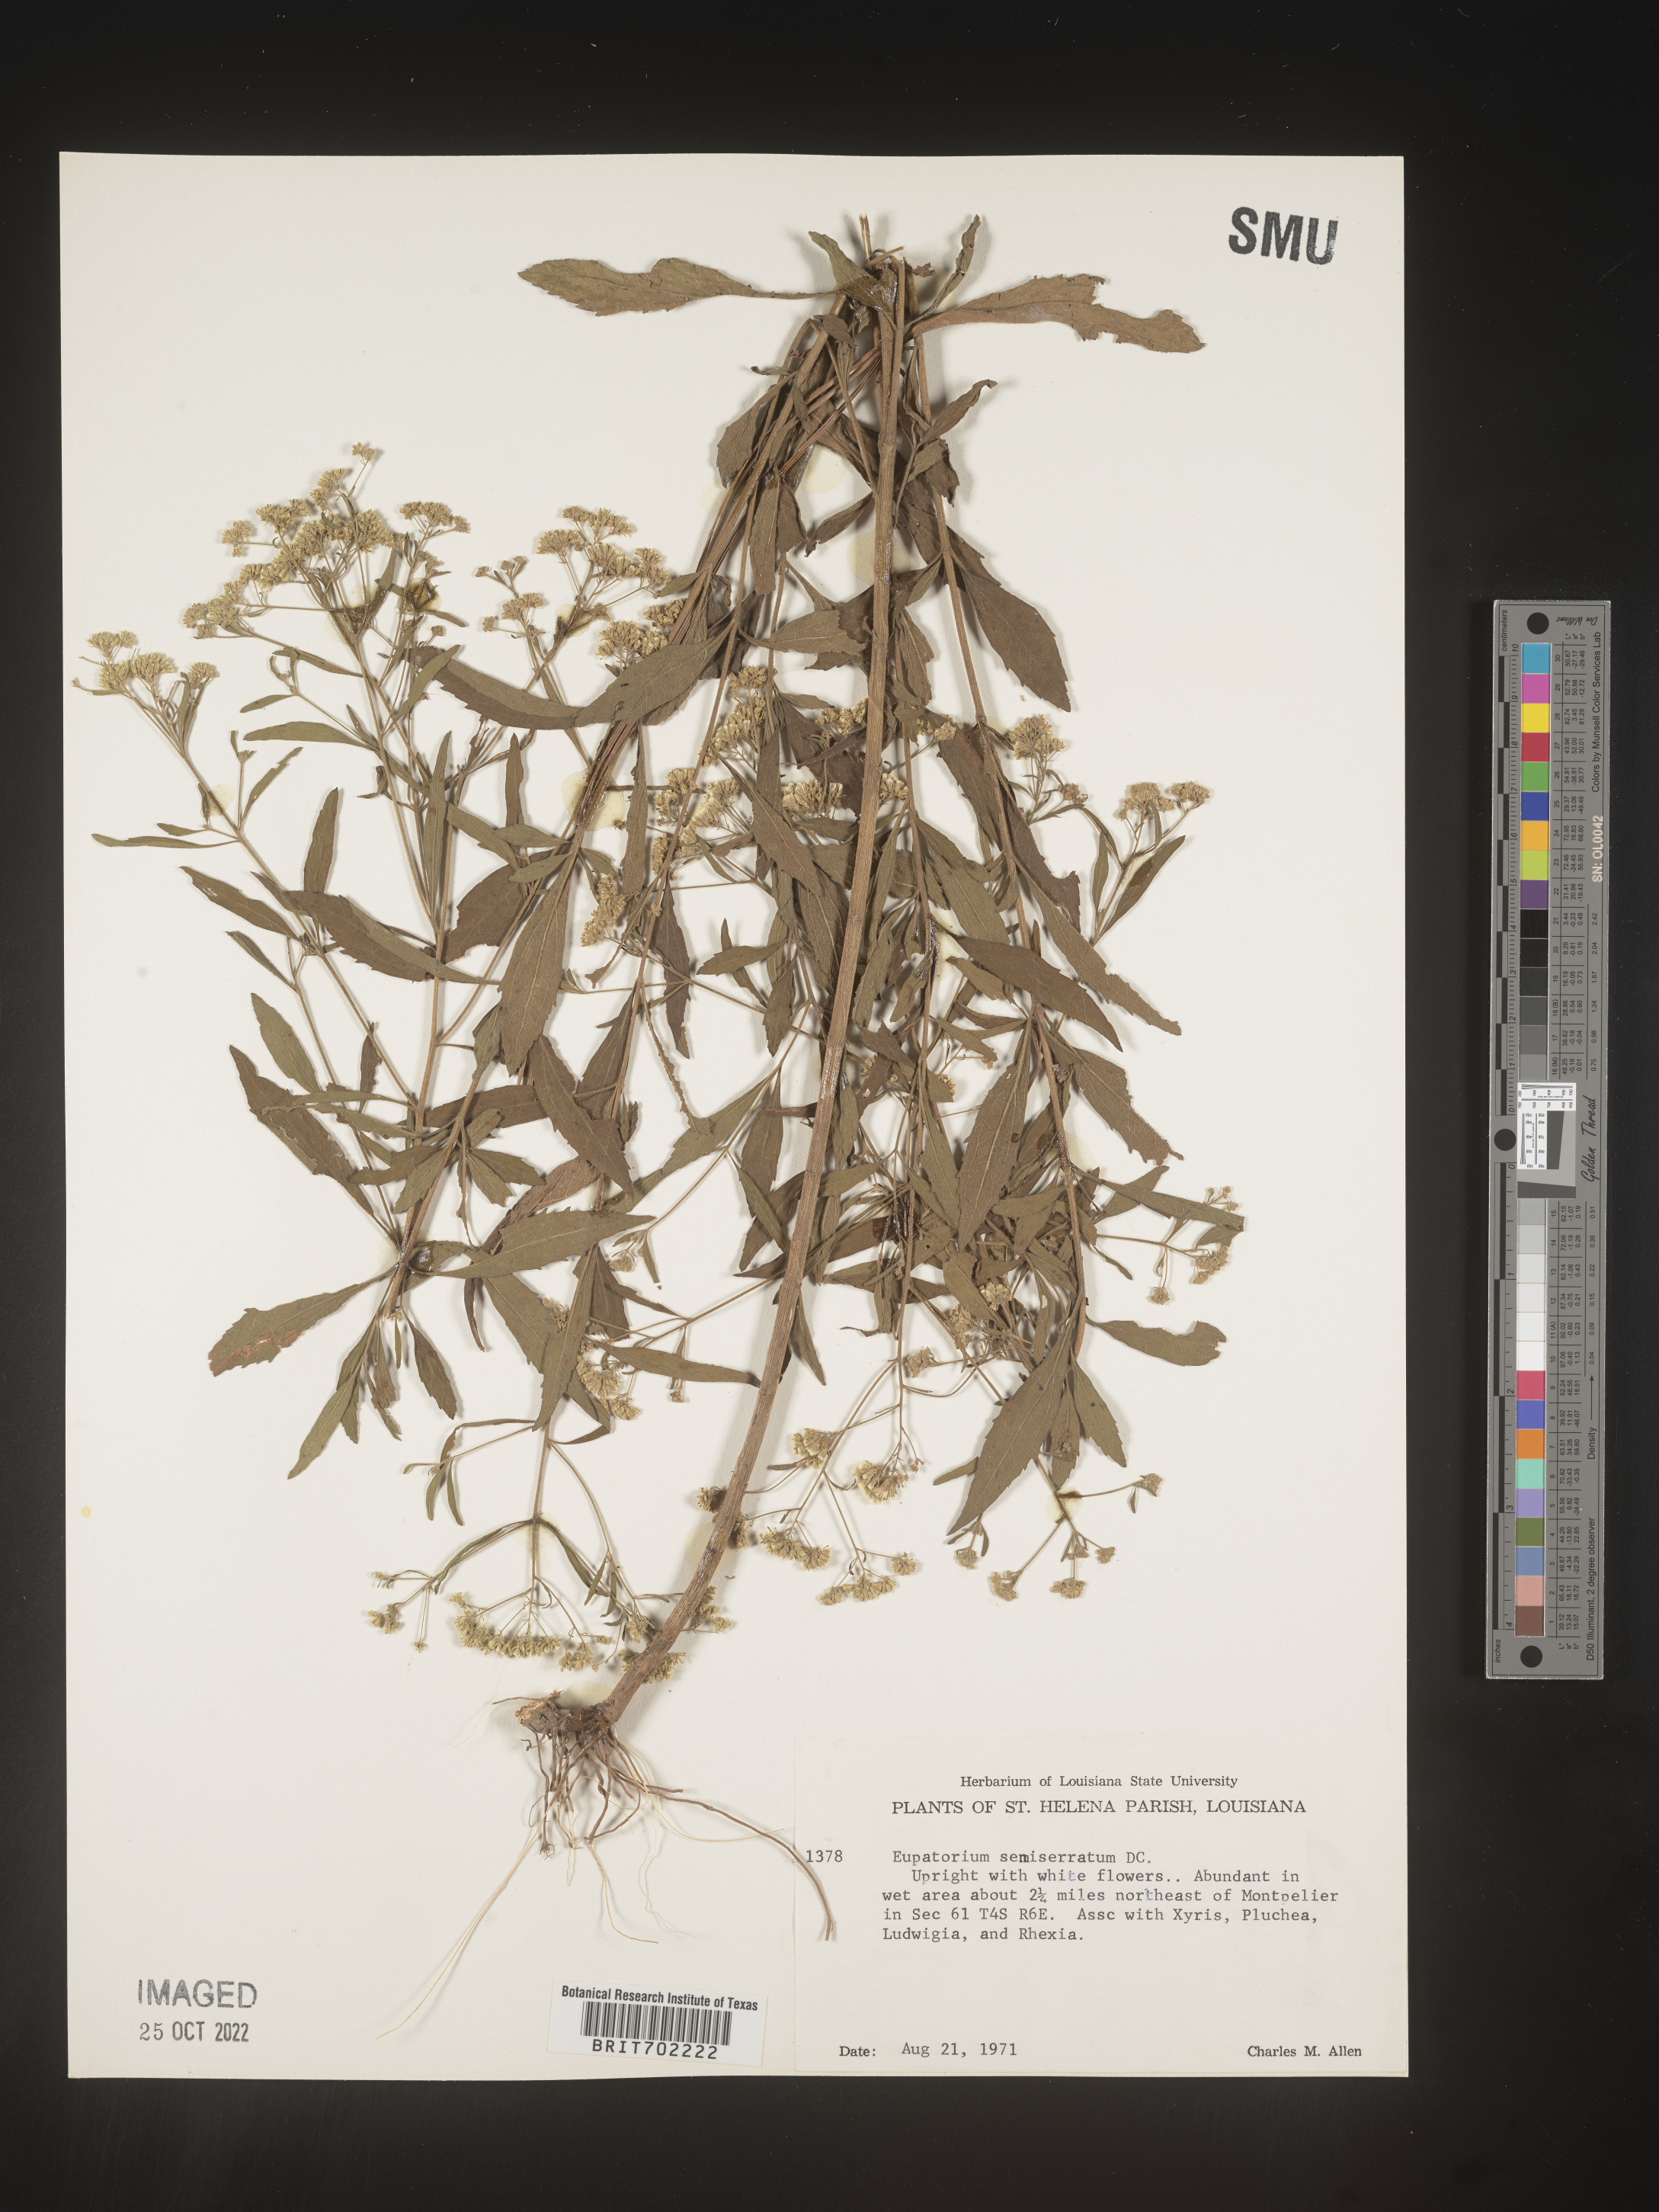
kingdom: Plantae
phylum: Tracheophyta
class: Magnoliopsida
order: Asterales
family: Asteraceae
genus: Eupatorium
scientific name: Eupatorium semiserratum
